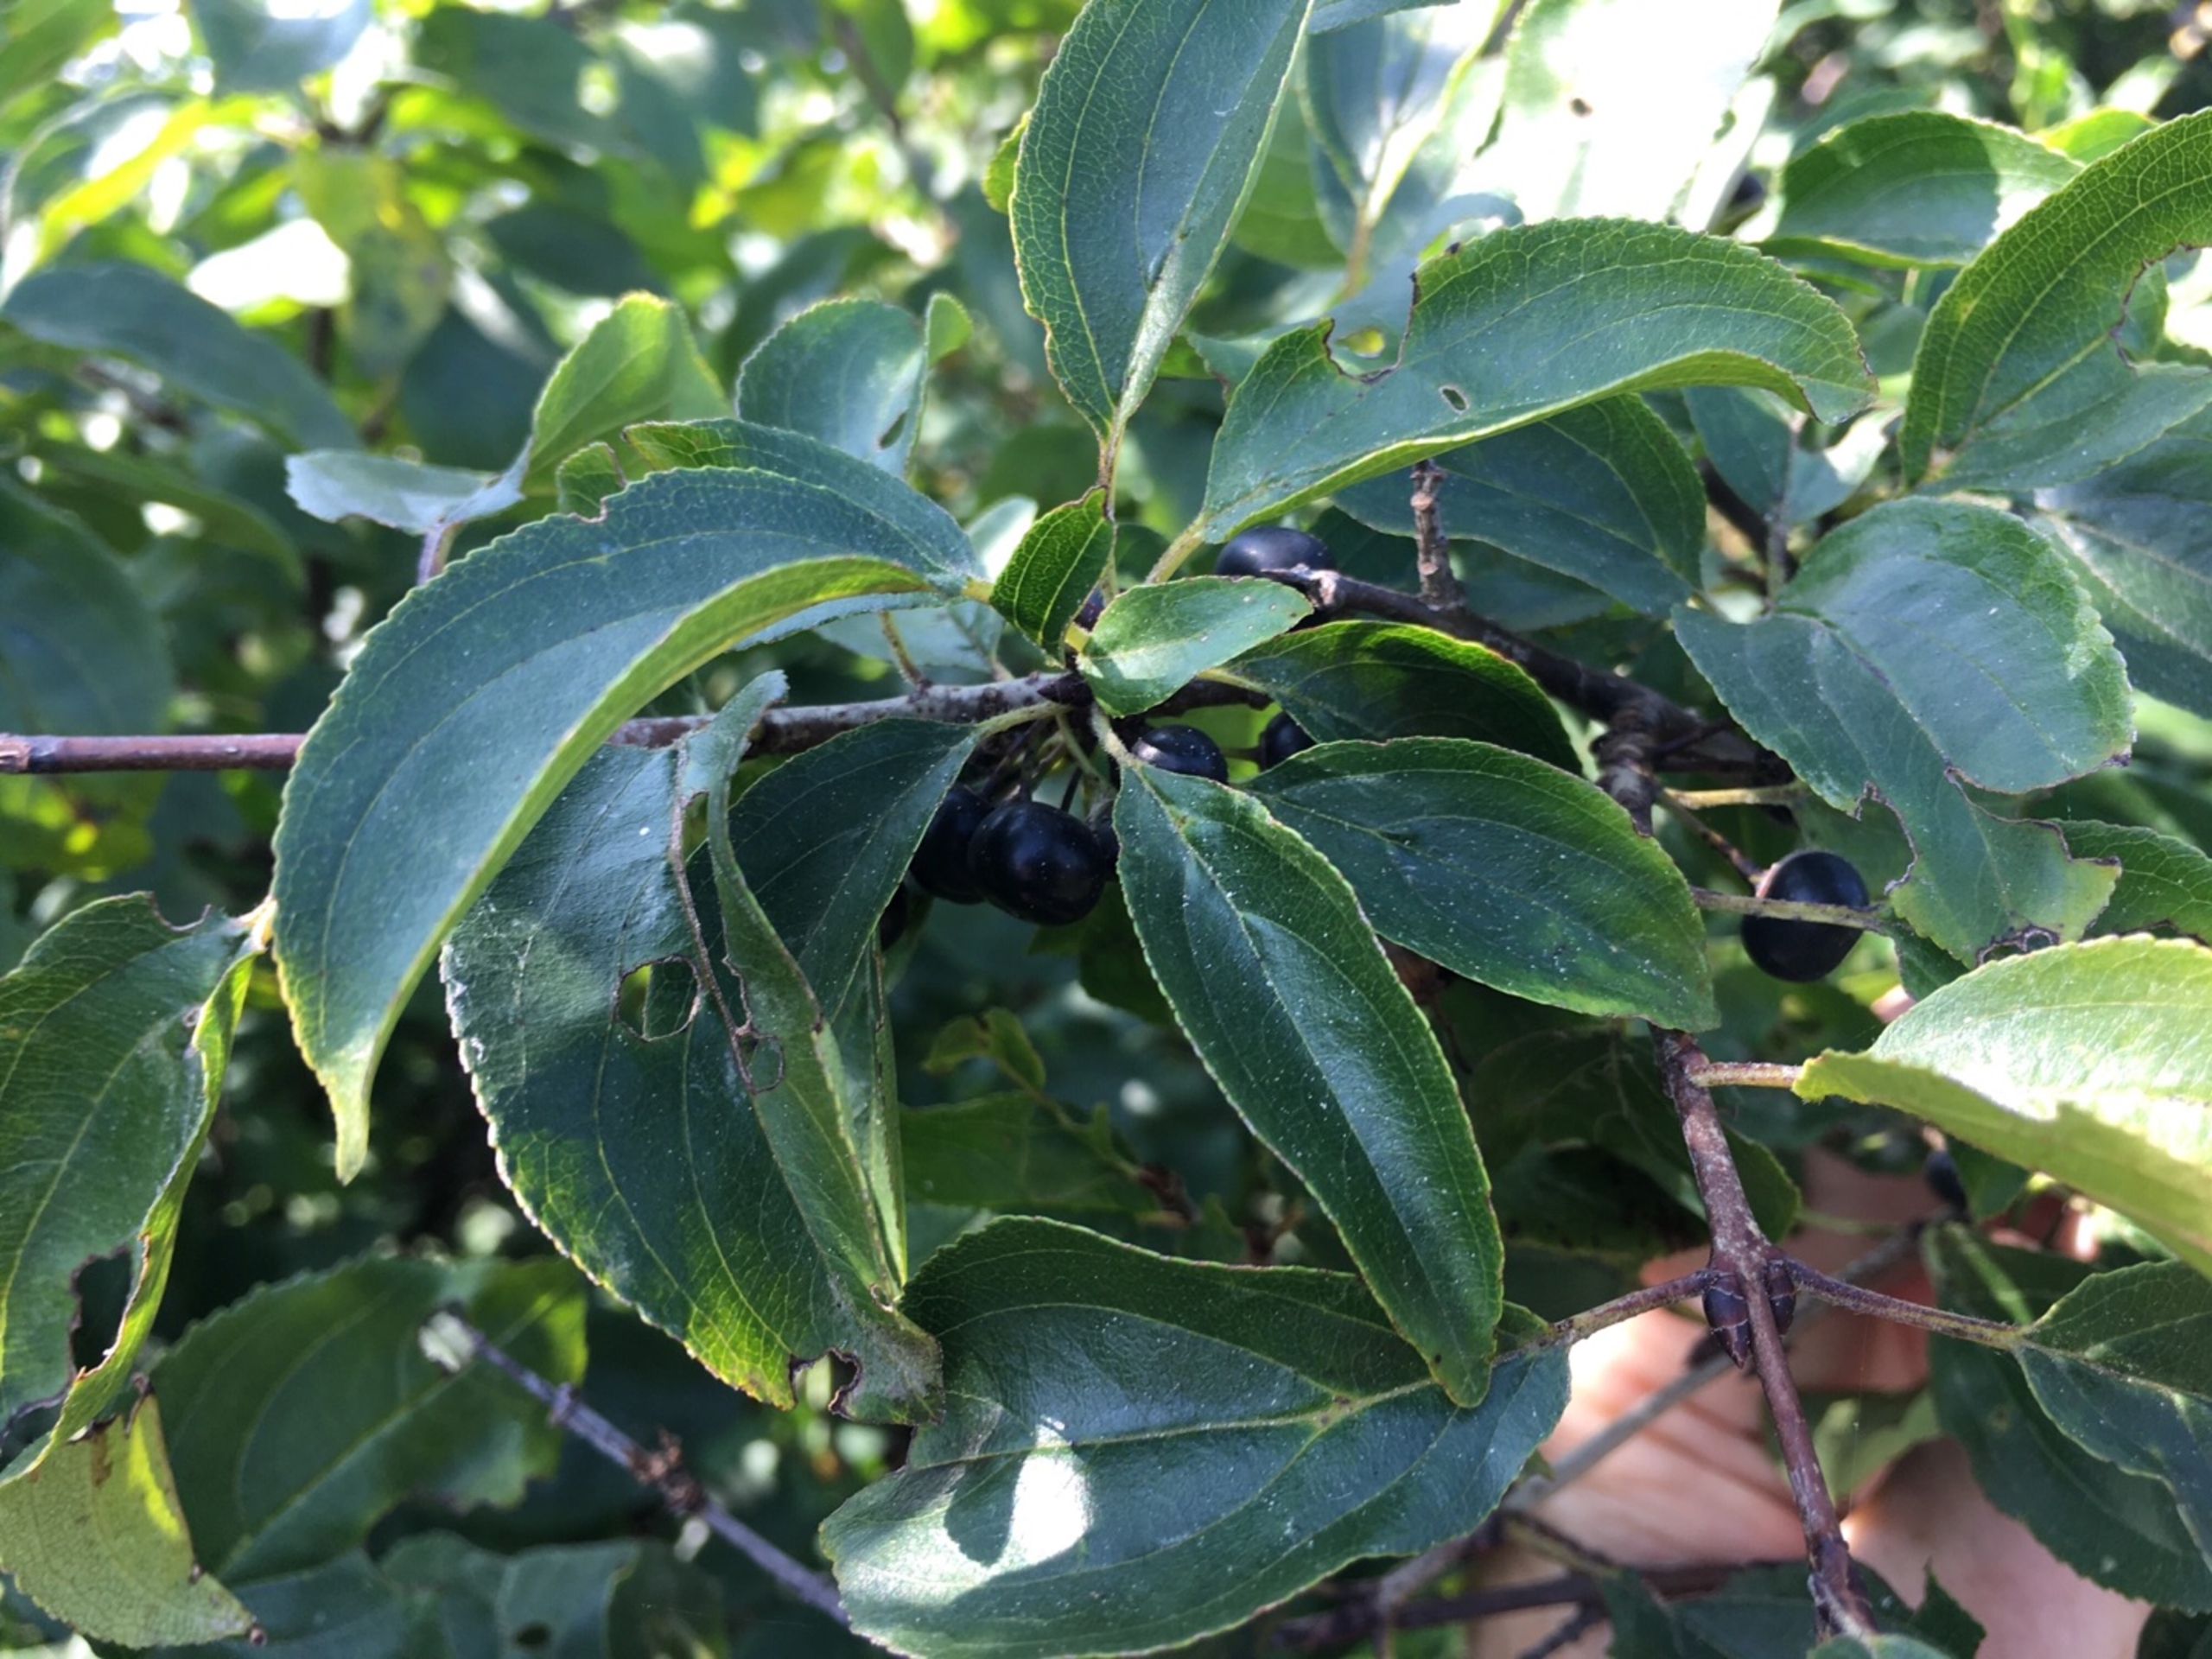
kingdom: Plantae
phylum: Tracheophyta
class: Magnoliopsida
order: Rosales
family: Rhamnaceae
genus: Rhamnus
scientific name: Rhamnus cathartica
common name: Vrietorn
